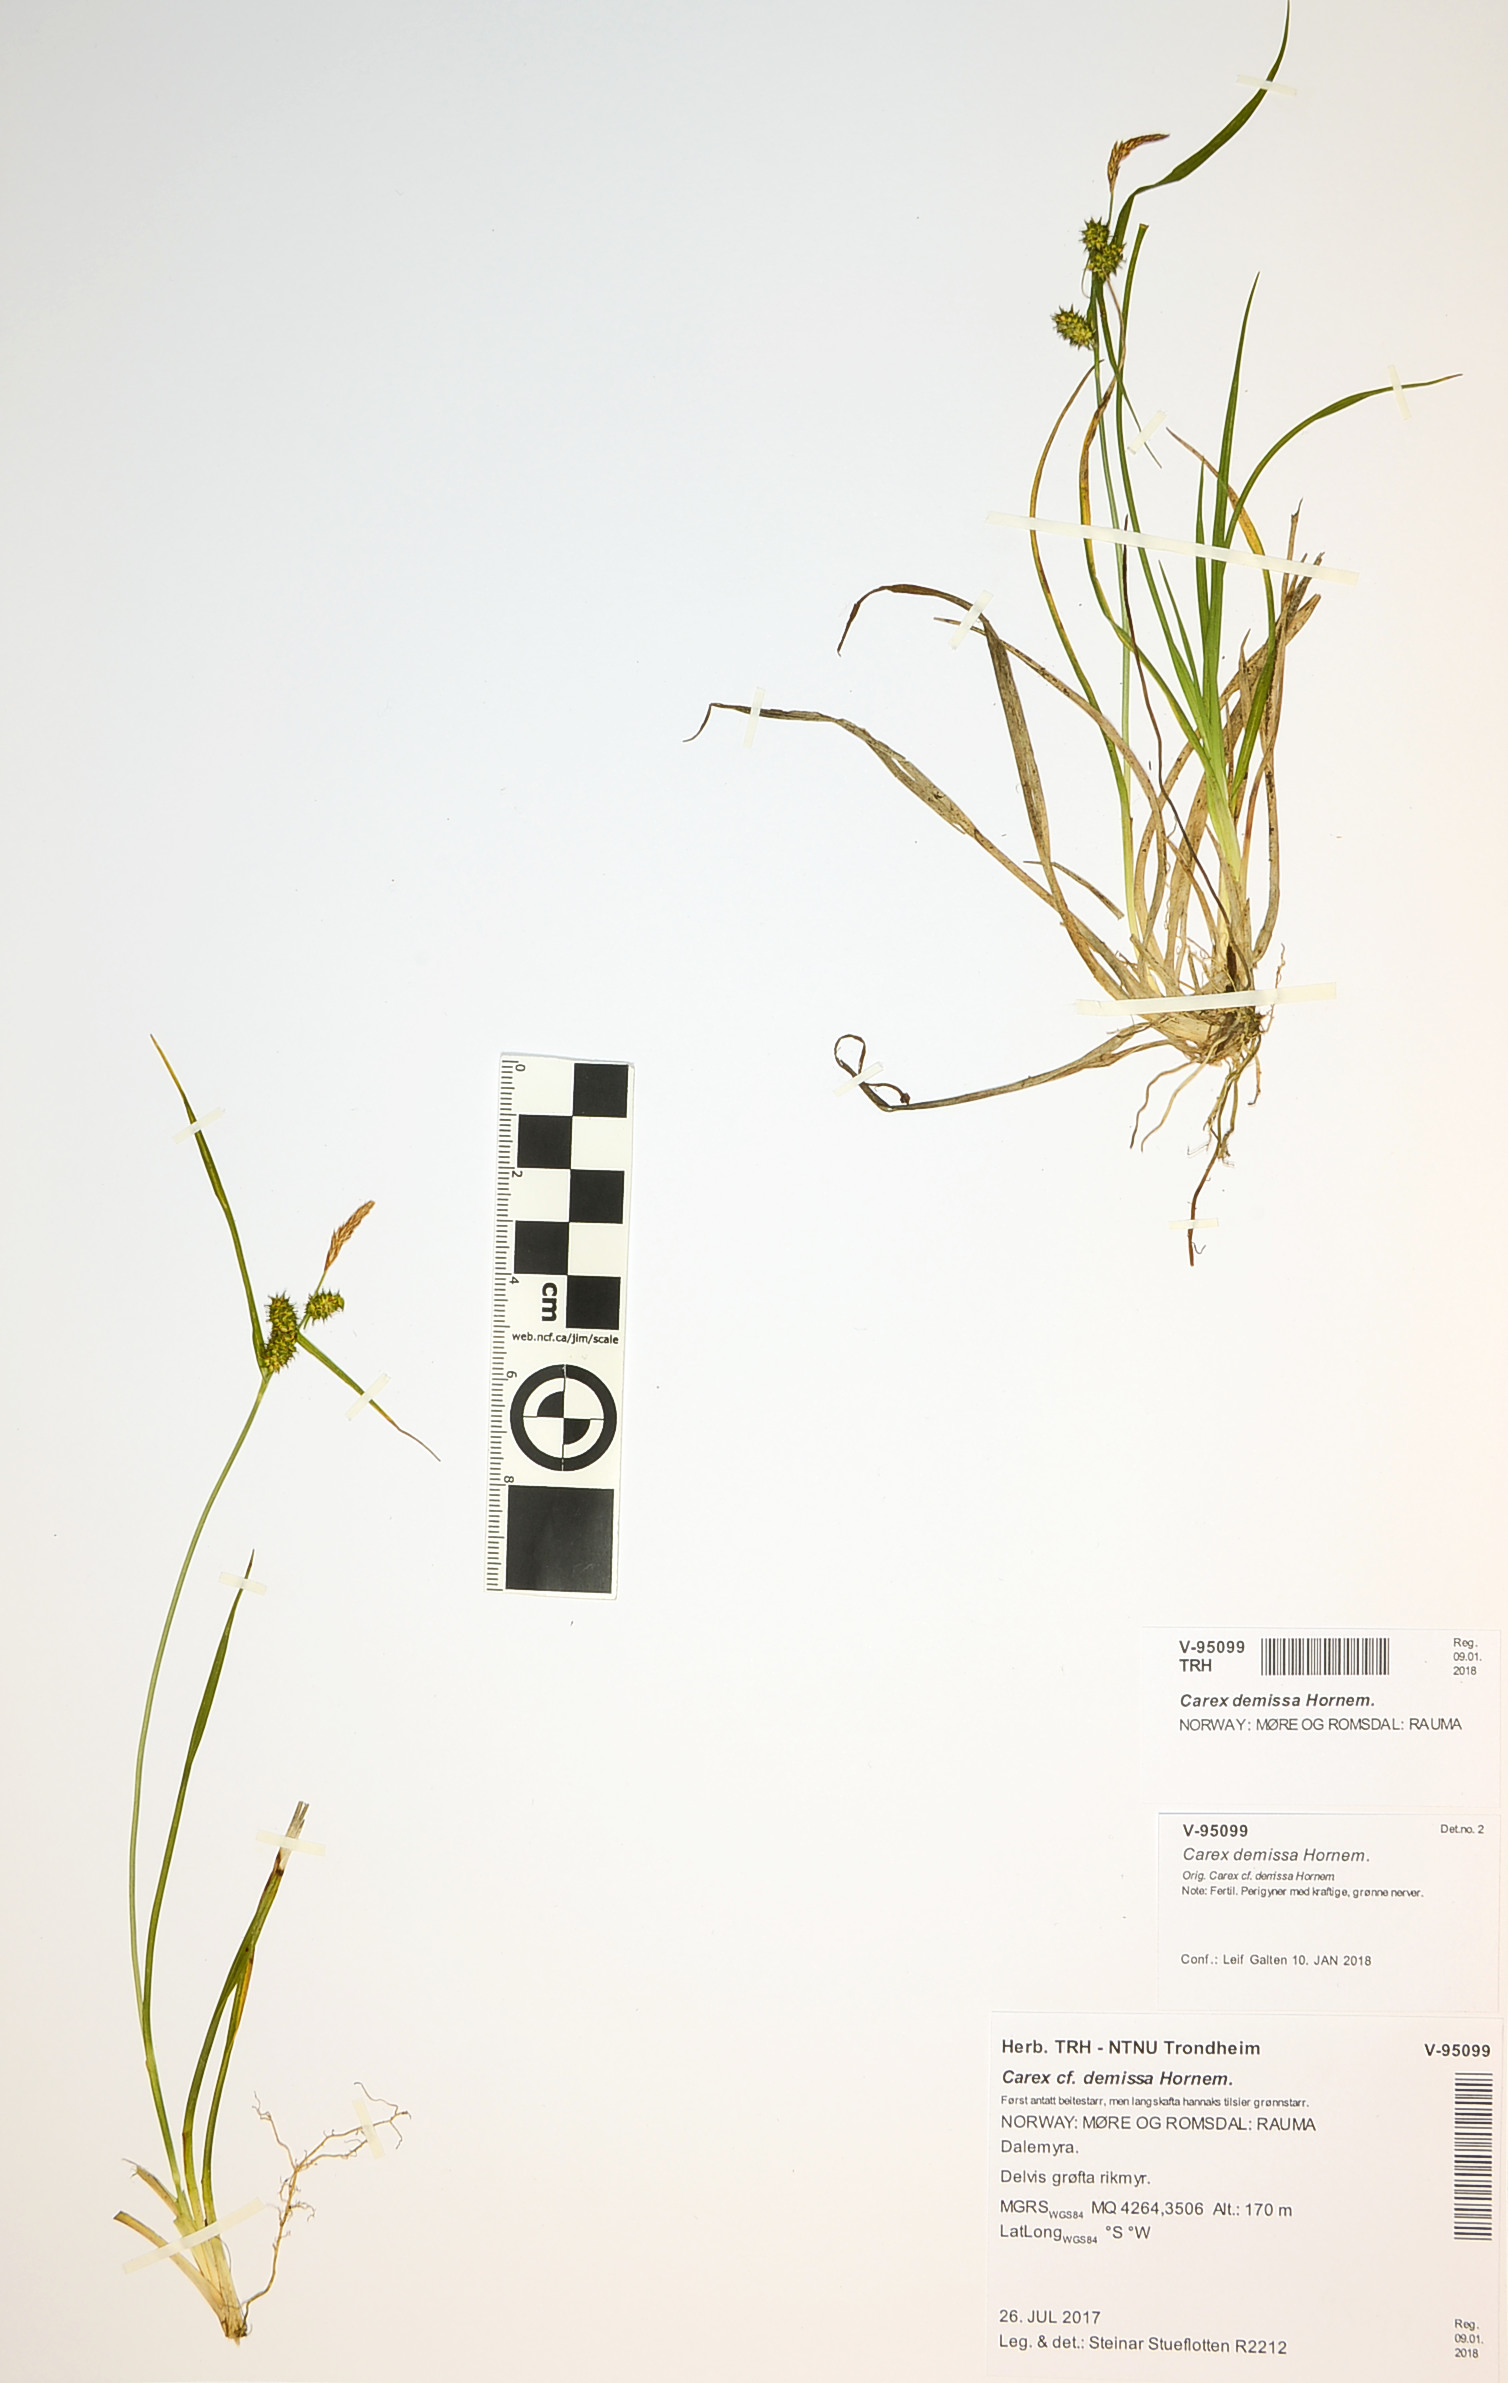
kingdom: Plantae
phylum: Tracheophyta
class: Liliopsida
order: Poales
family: Cyperaceae
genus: Carex
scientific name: Carex demissa
